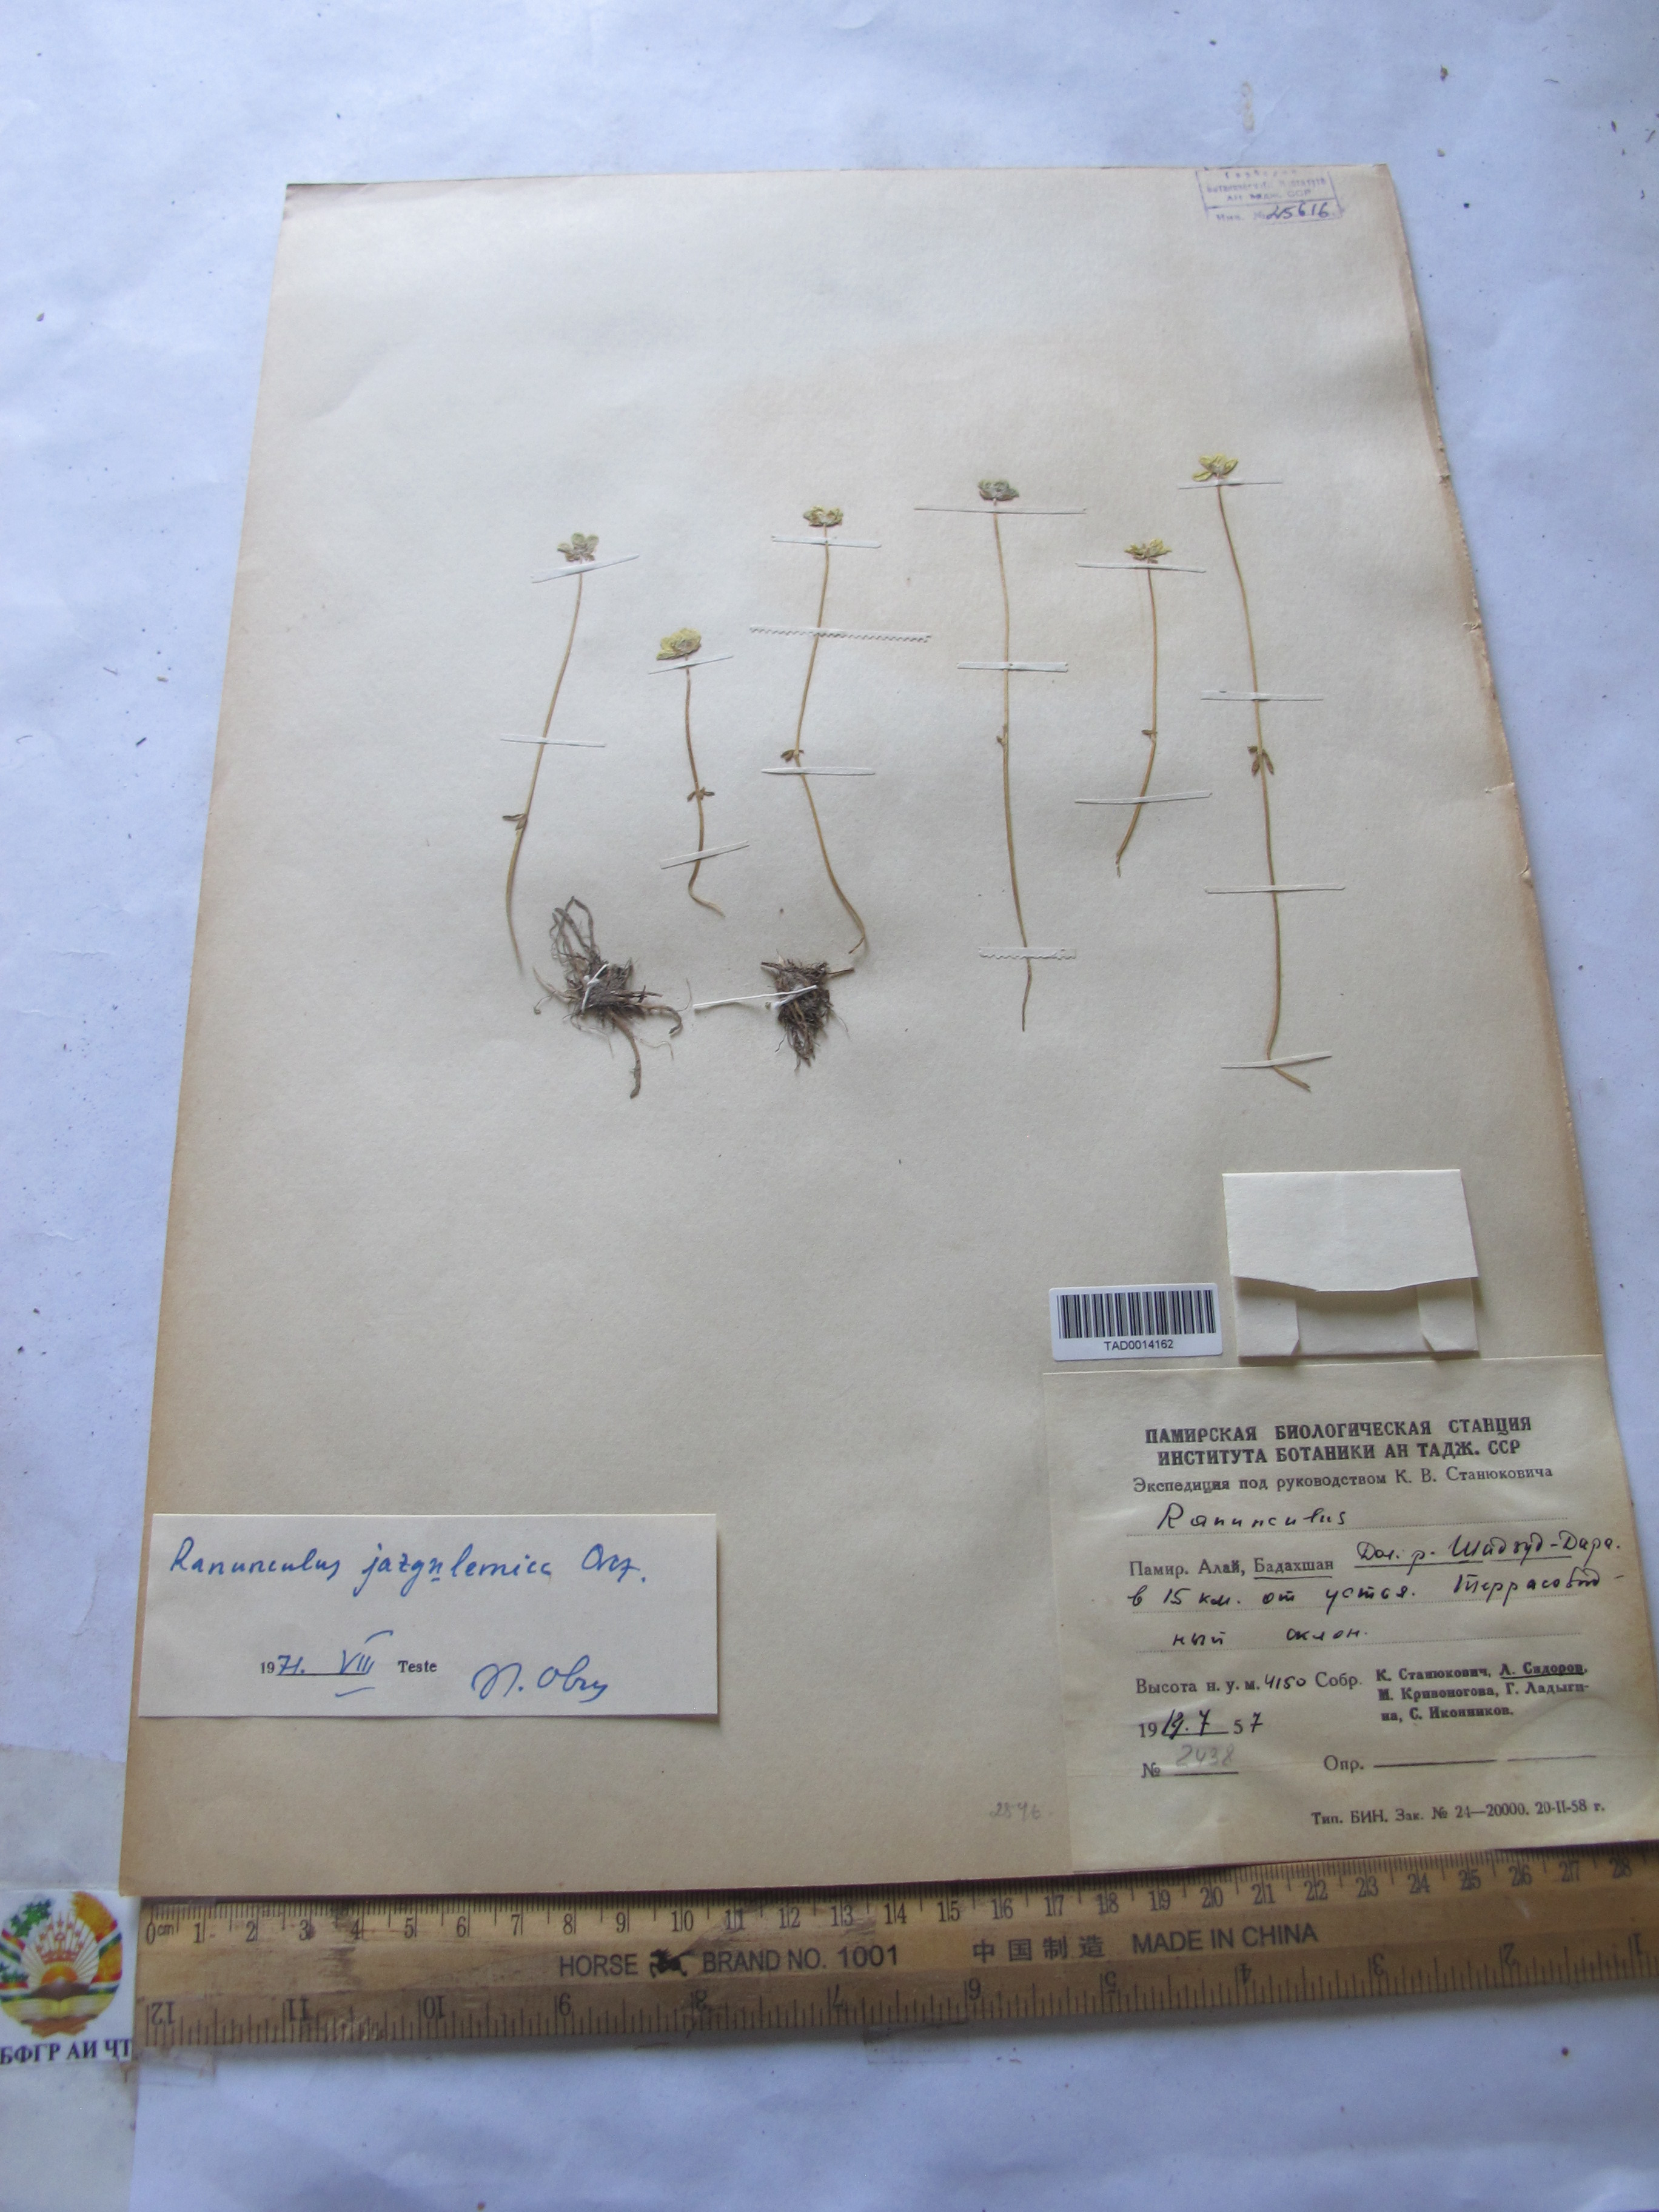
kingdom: Plantae
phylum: Tracheophyta
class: Magnoliopsida
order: Ranunculales
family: Ranunculaceae
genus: Ranunculus
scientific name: Ranunculus jazgulemicus
